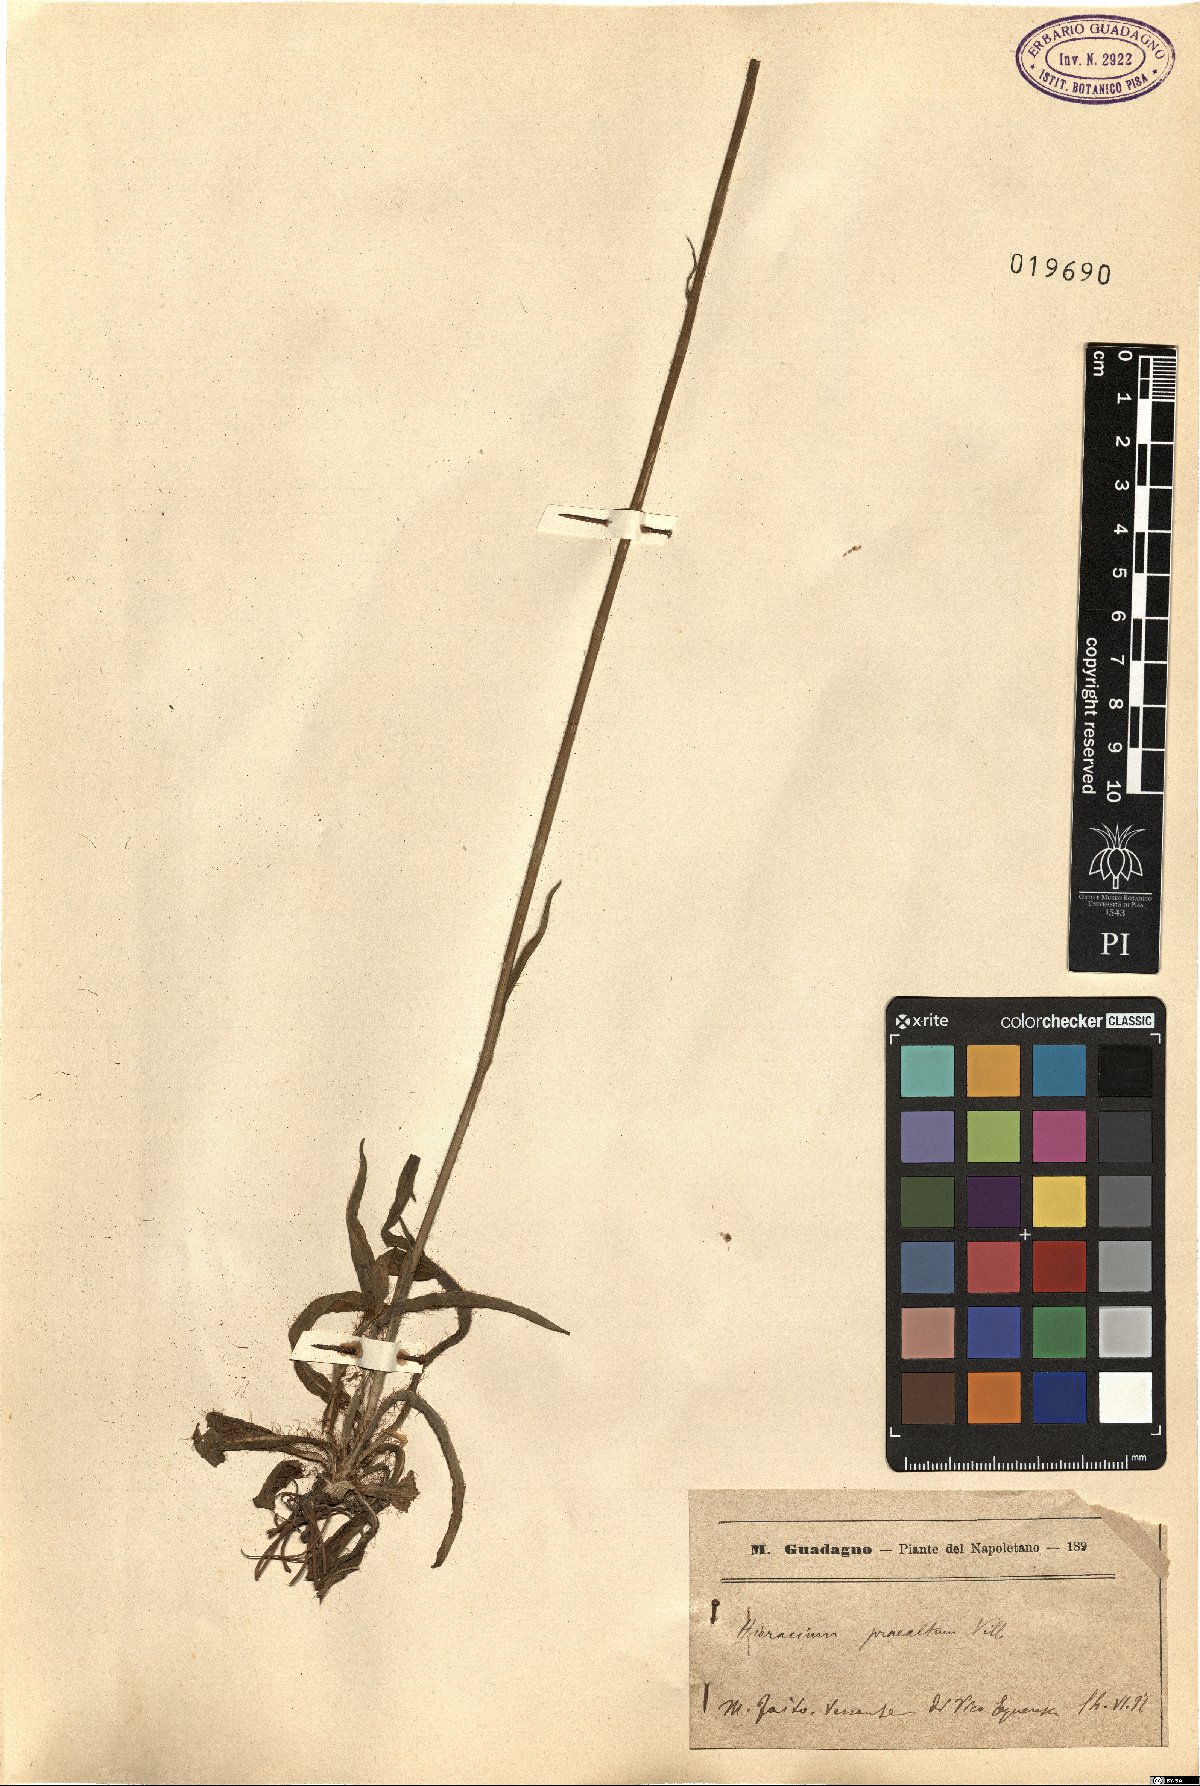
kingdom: Plantae
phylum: Tracheophyta
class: Magnoliopsida
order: Asterales
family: Asteraceae
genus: Pilosella
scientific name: Pilosella piloselloides
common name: Glaucous king-devil
